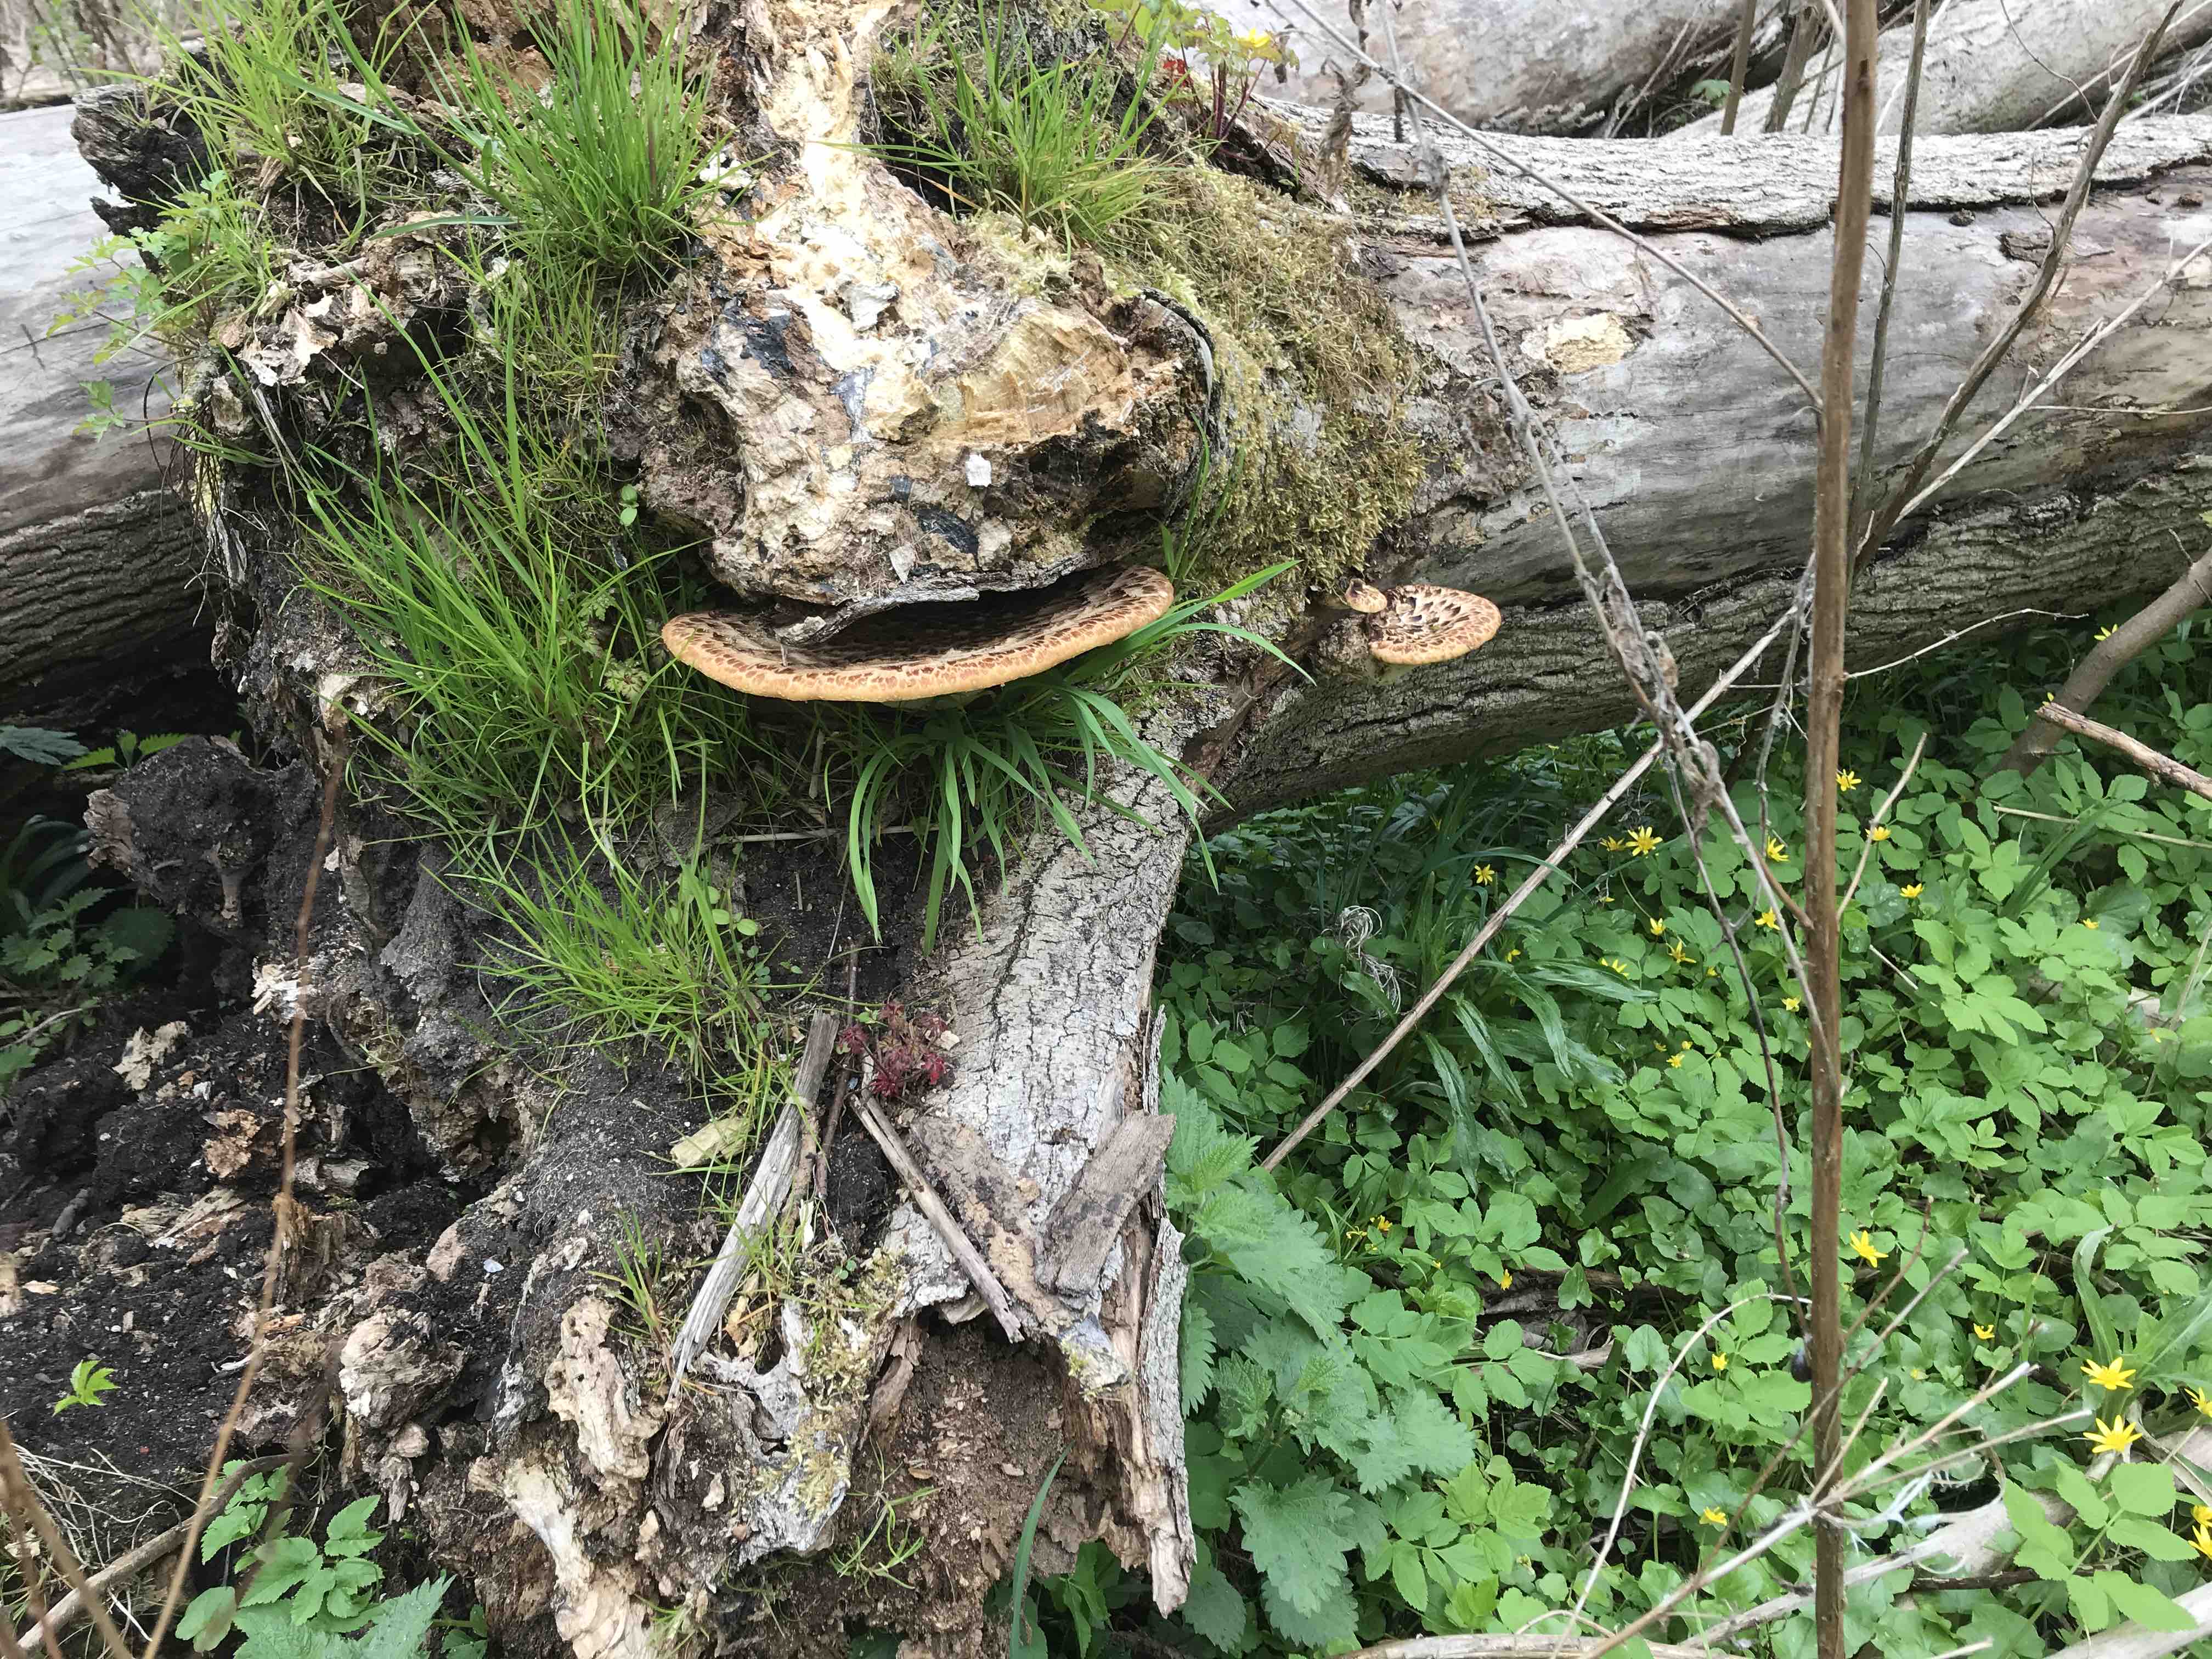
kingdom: Fungi
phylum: Basidiomycota
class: Agaricomycetes
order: Polyporales
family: Polyporaceae
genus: Cerioporus
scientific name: Cerioporus squamosus
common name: skællet stilkporesvamp
